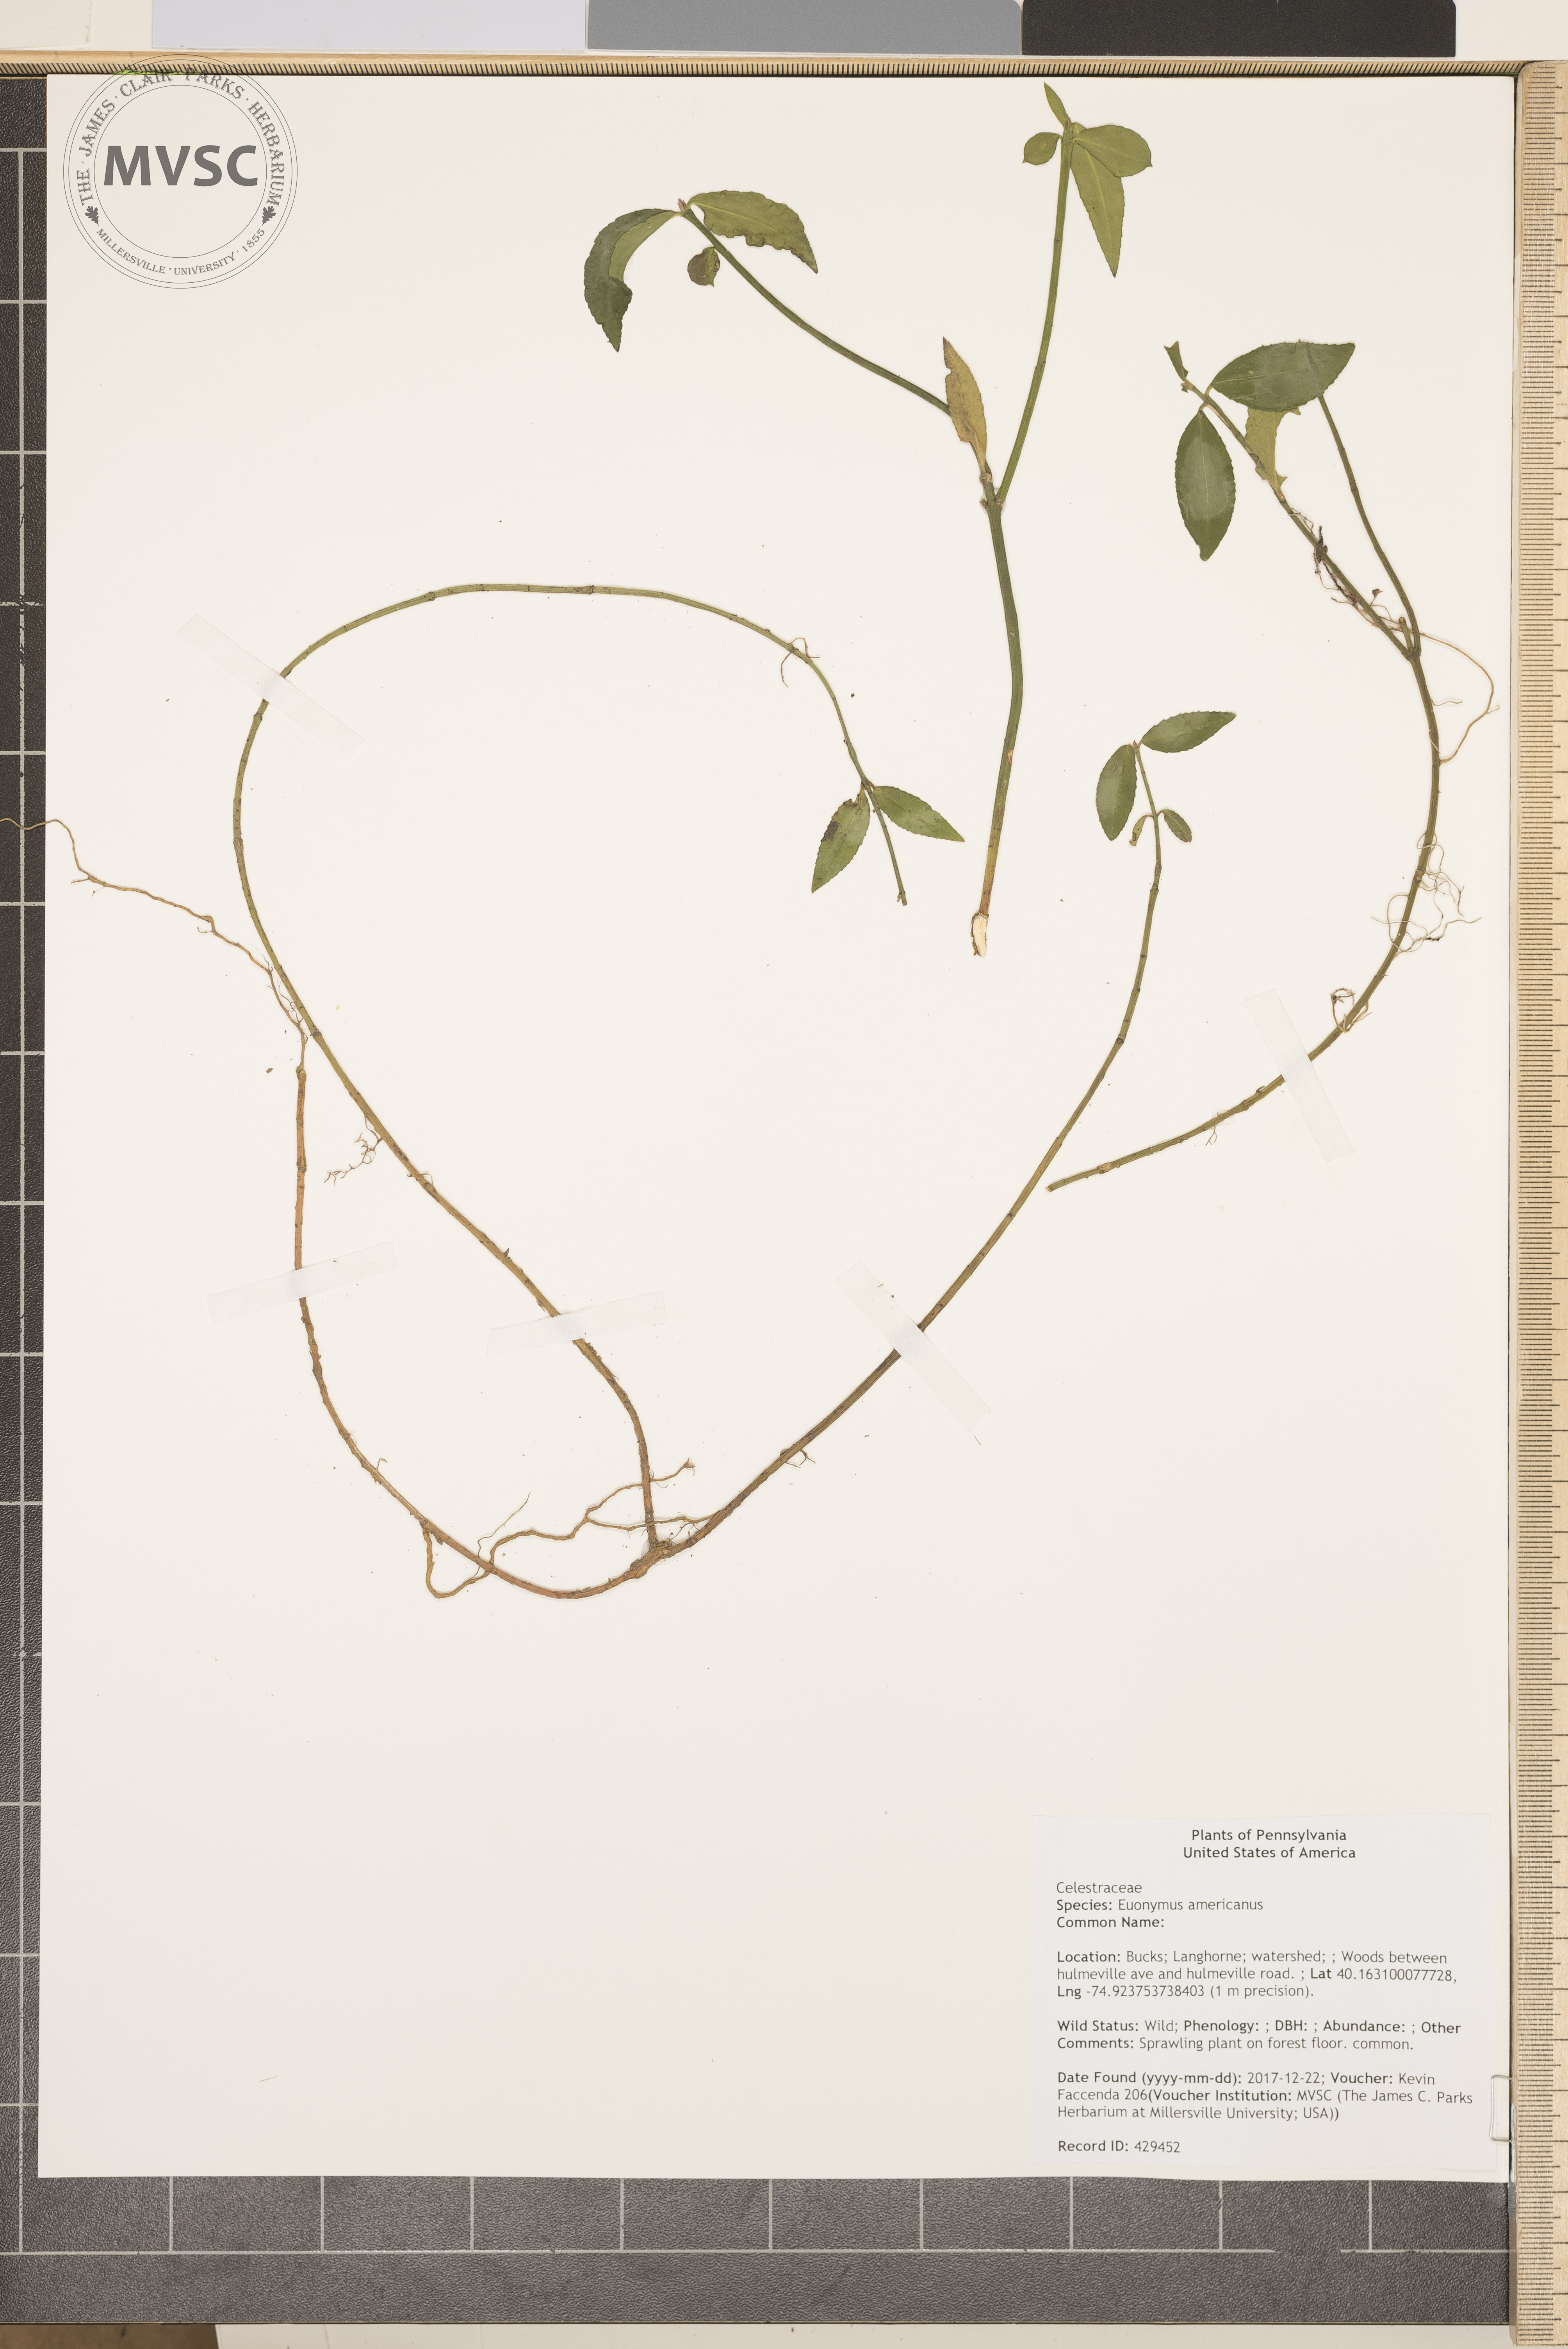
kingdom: Plantae
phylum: Tracheophyta
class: Magnoliopsida
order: Celastrales
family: Celastraceae
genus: Euonymus
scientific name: Euonymus americanus
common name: Bursting-heart
